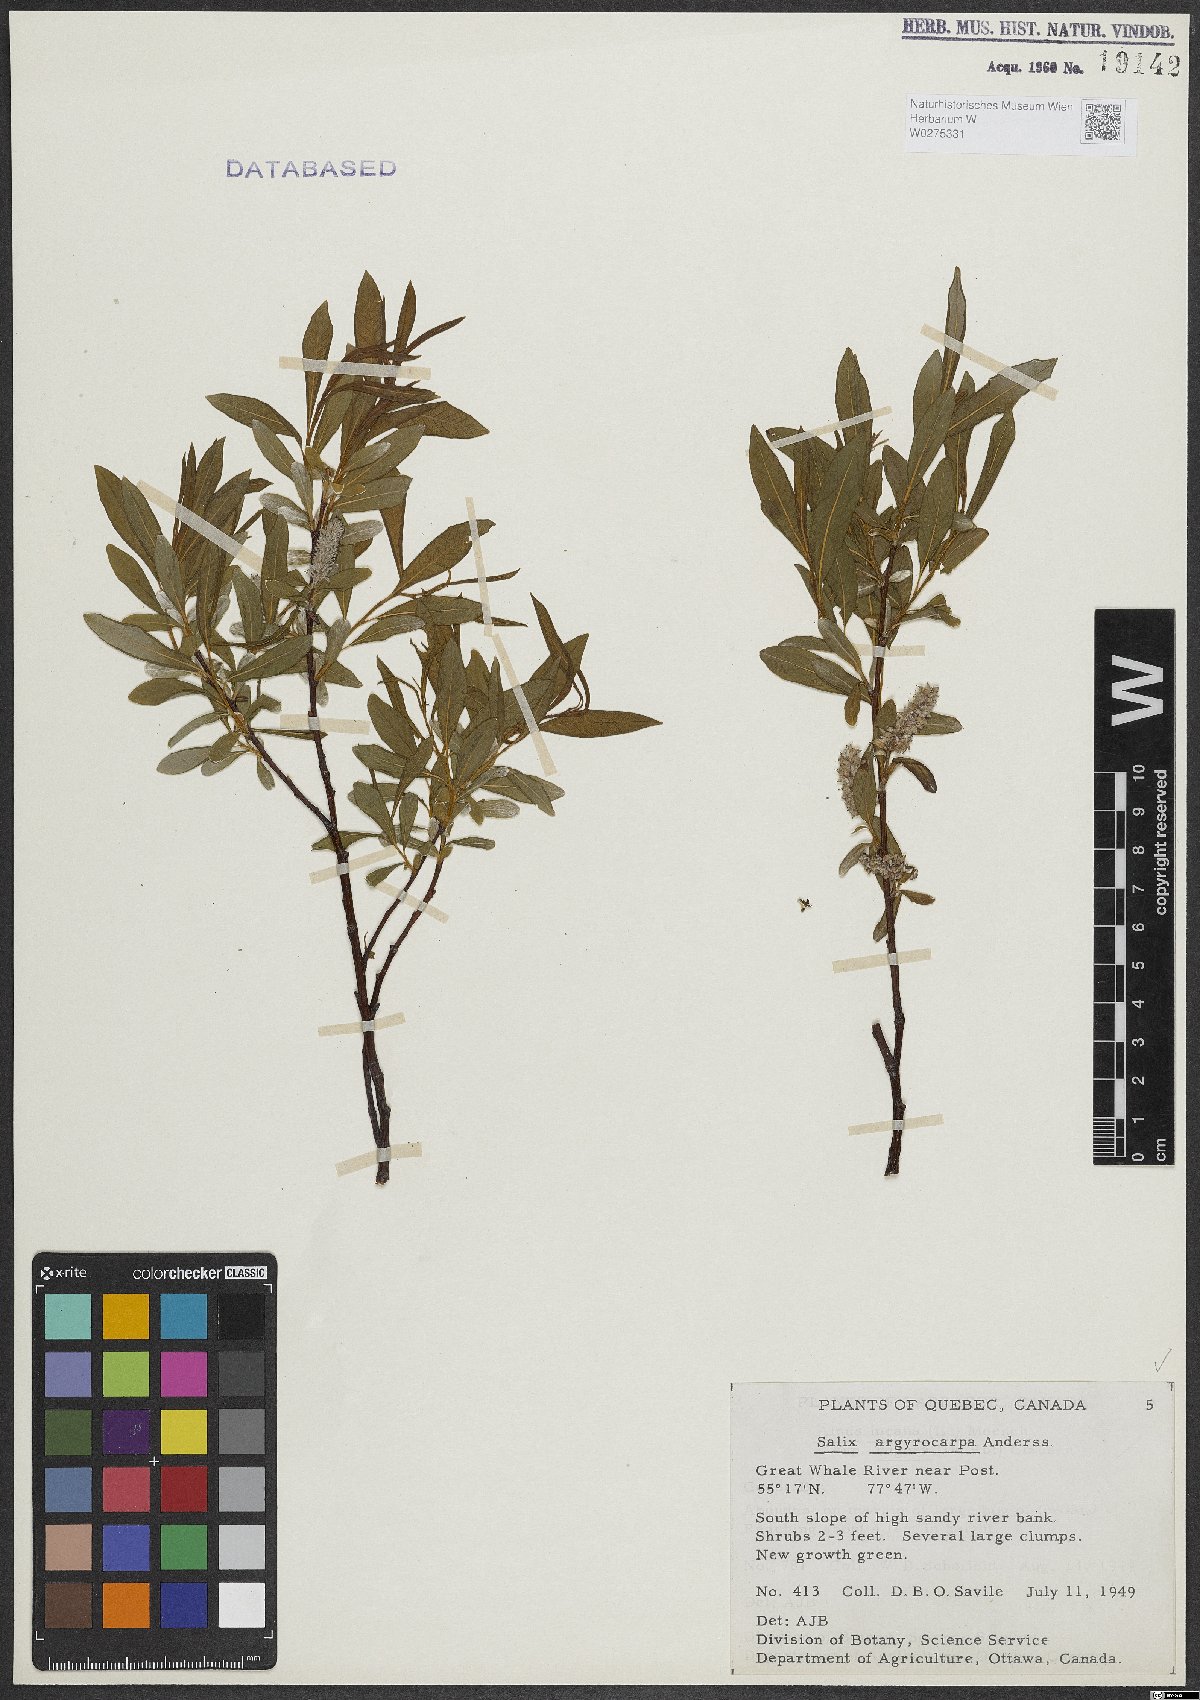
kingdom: Plantae
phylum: Tracheophyta
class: Magnoliopsida
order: Malpighiales
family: Salicaceae
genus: Salix
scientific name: Salix argyrocarpa
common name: Labrador willow
